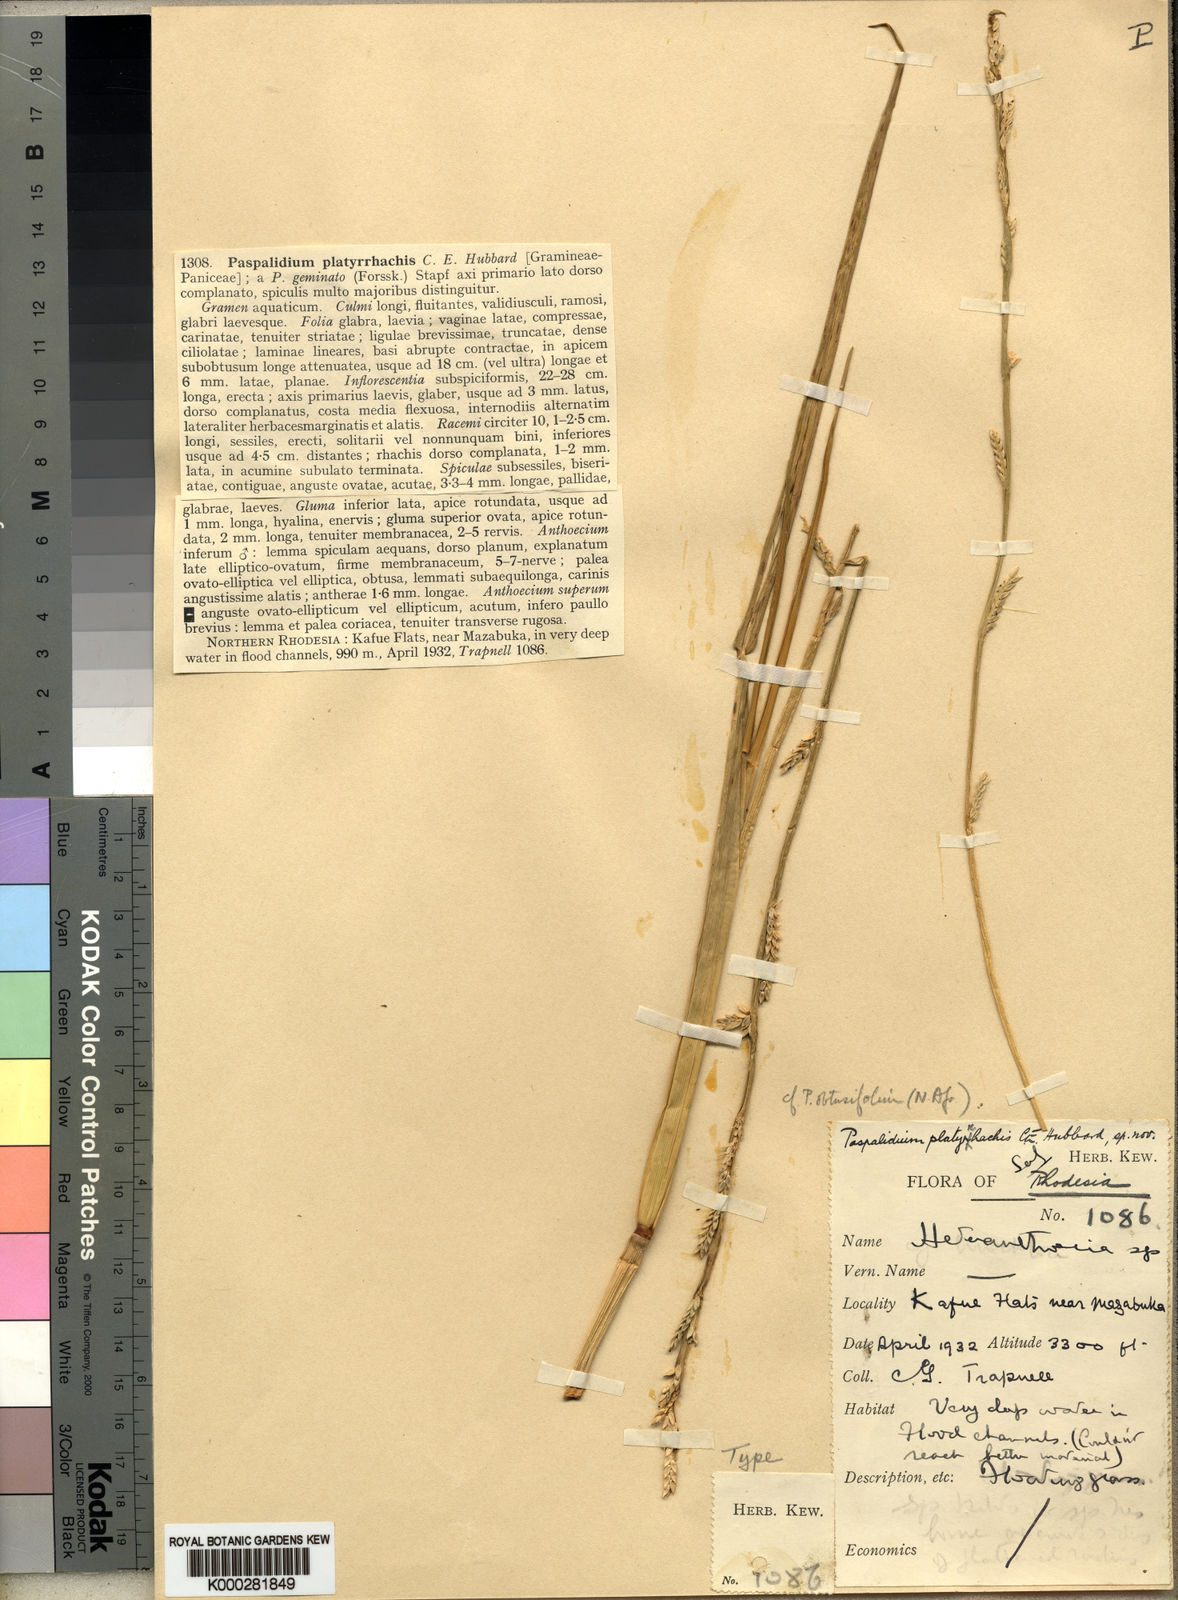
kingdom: Plantae
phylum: Tracheophyta
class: Liliopsida
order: Poales
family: Poaceae
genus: Setaria
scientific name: Setaria obtusifolia
